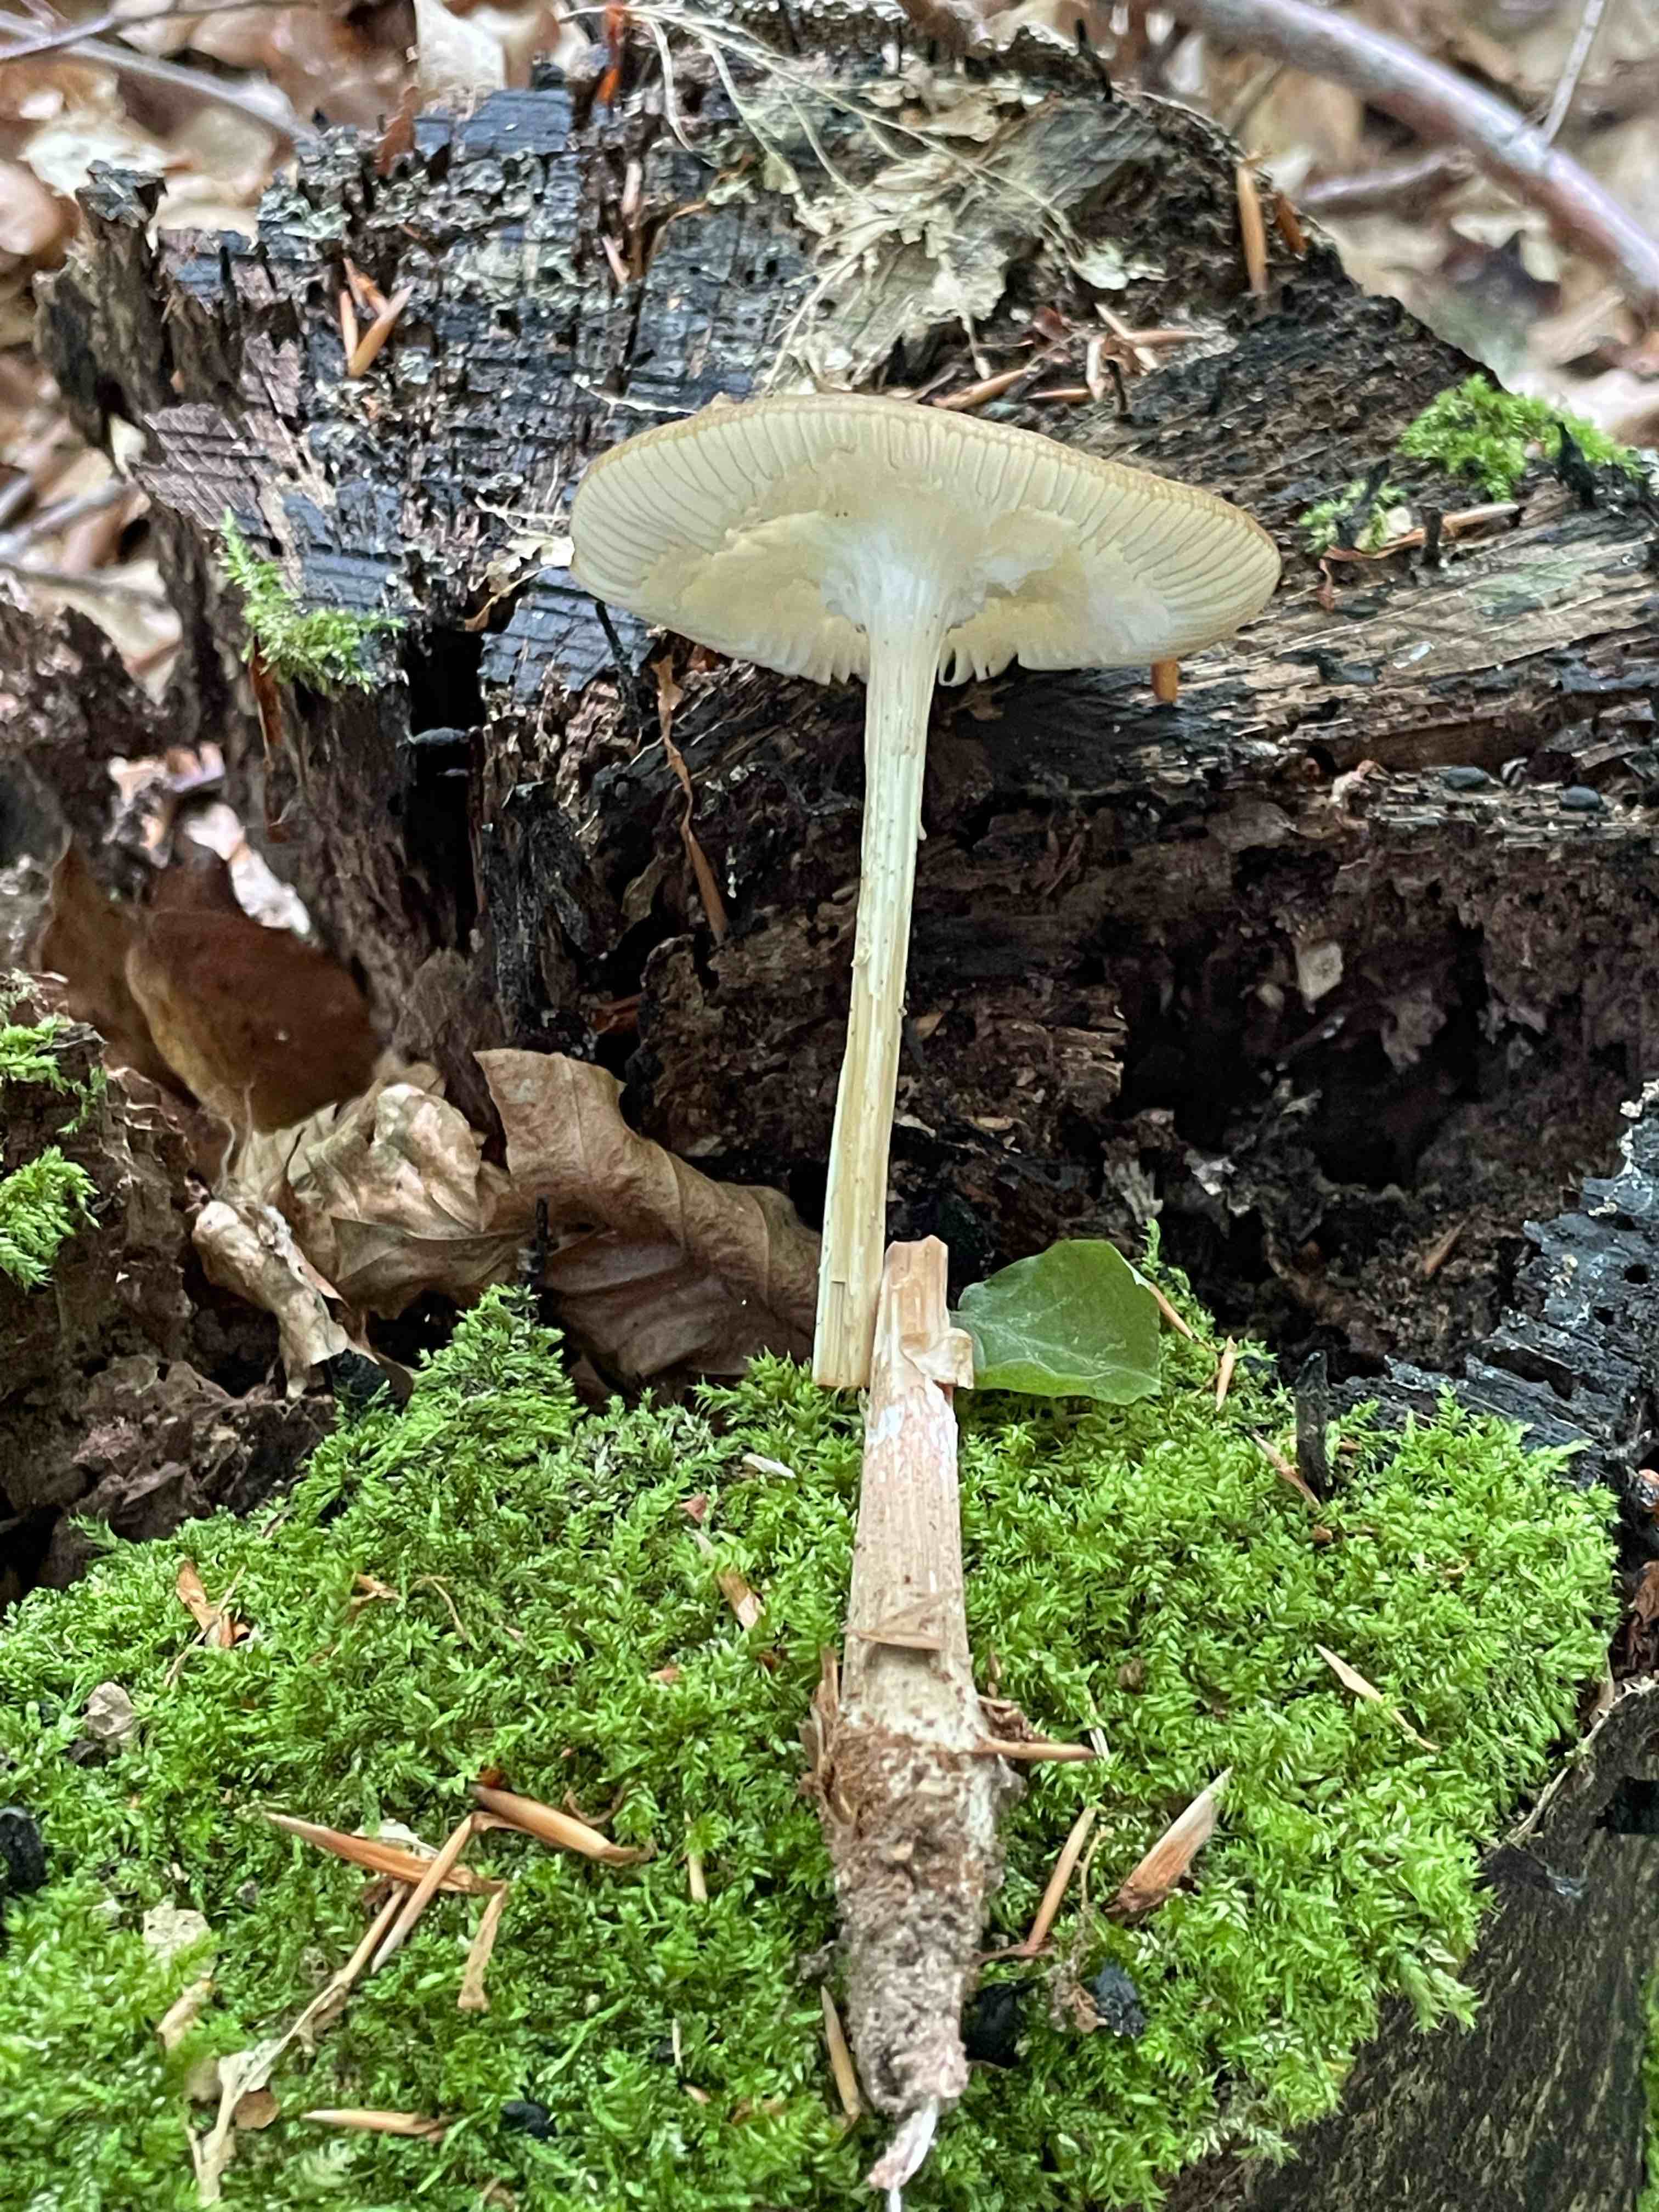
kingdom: Fungi
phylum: Basidiomycota
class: Agaricomycetes
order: Agaricales
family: Physalacriaceae
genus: Hymenopellis
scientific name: Hymenopellis radicata
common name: almindelig pælerodshat
